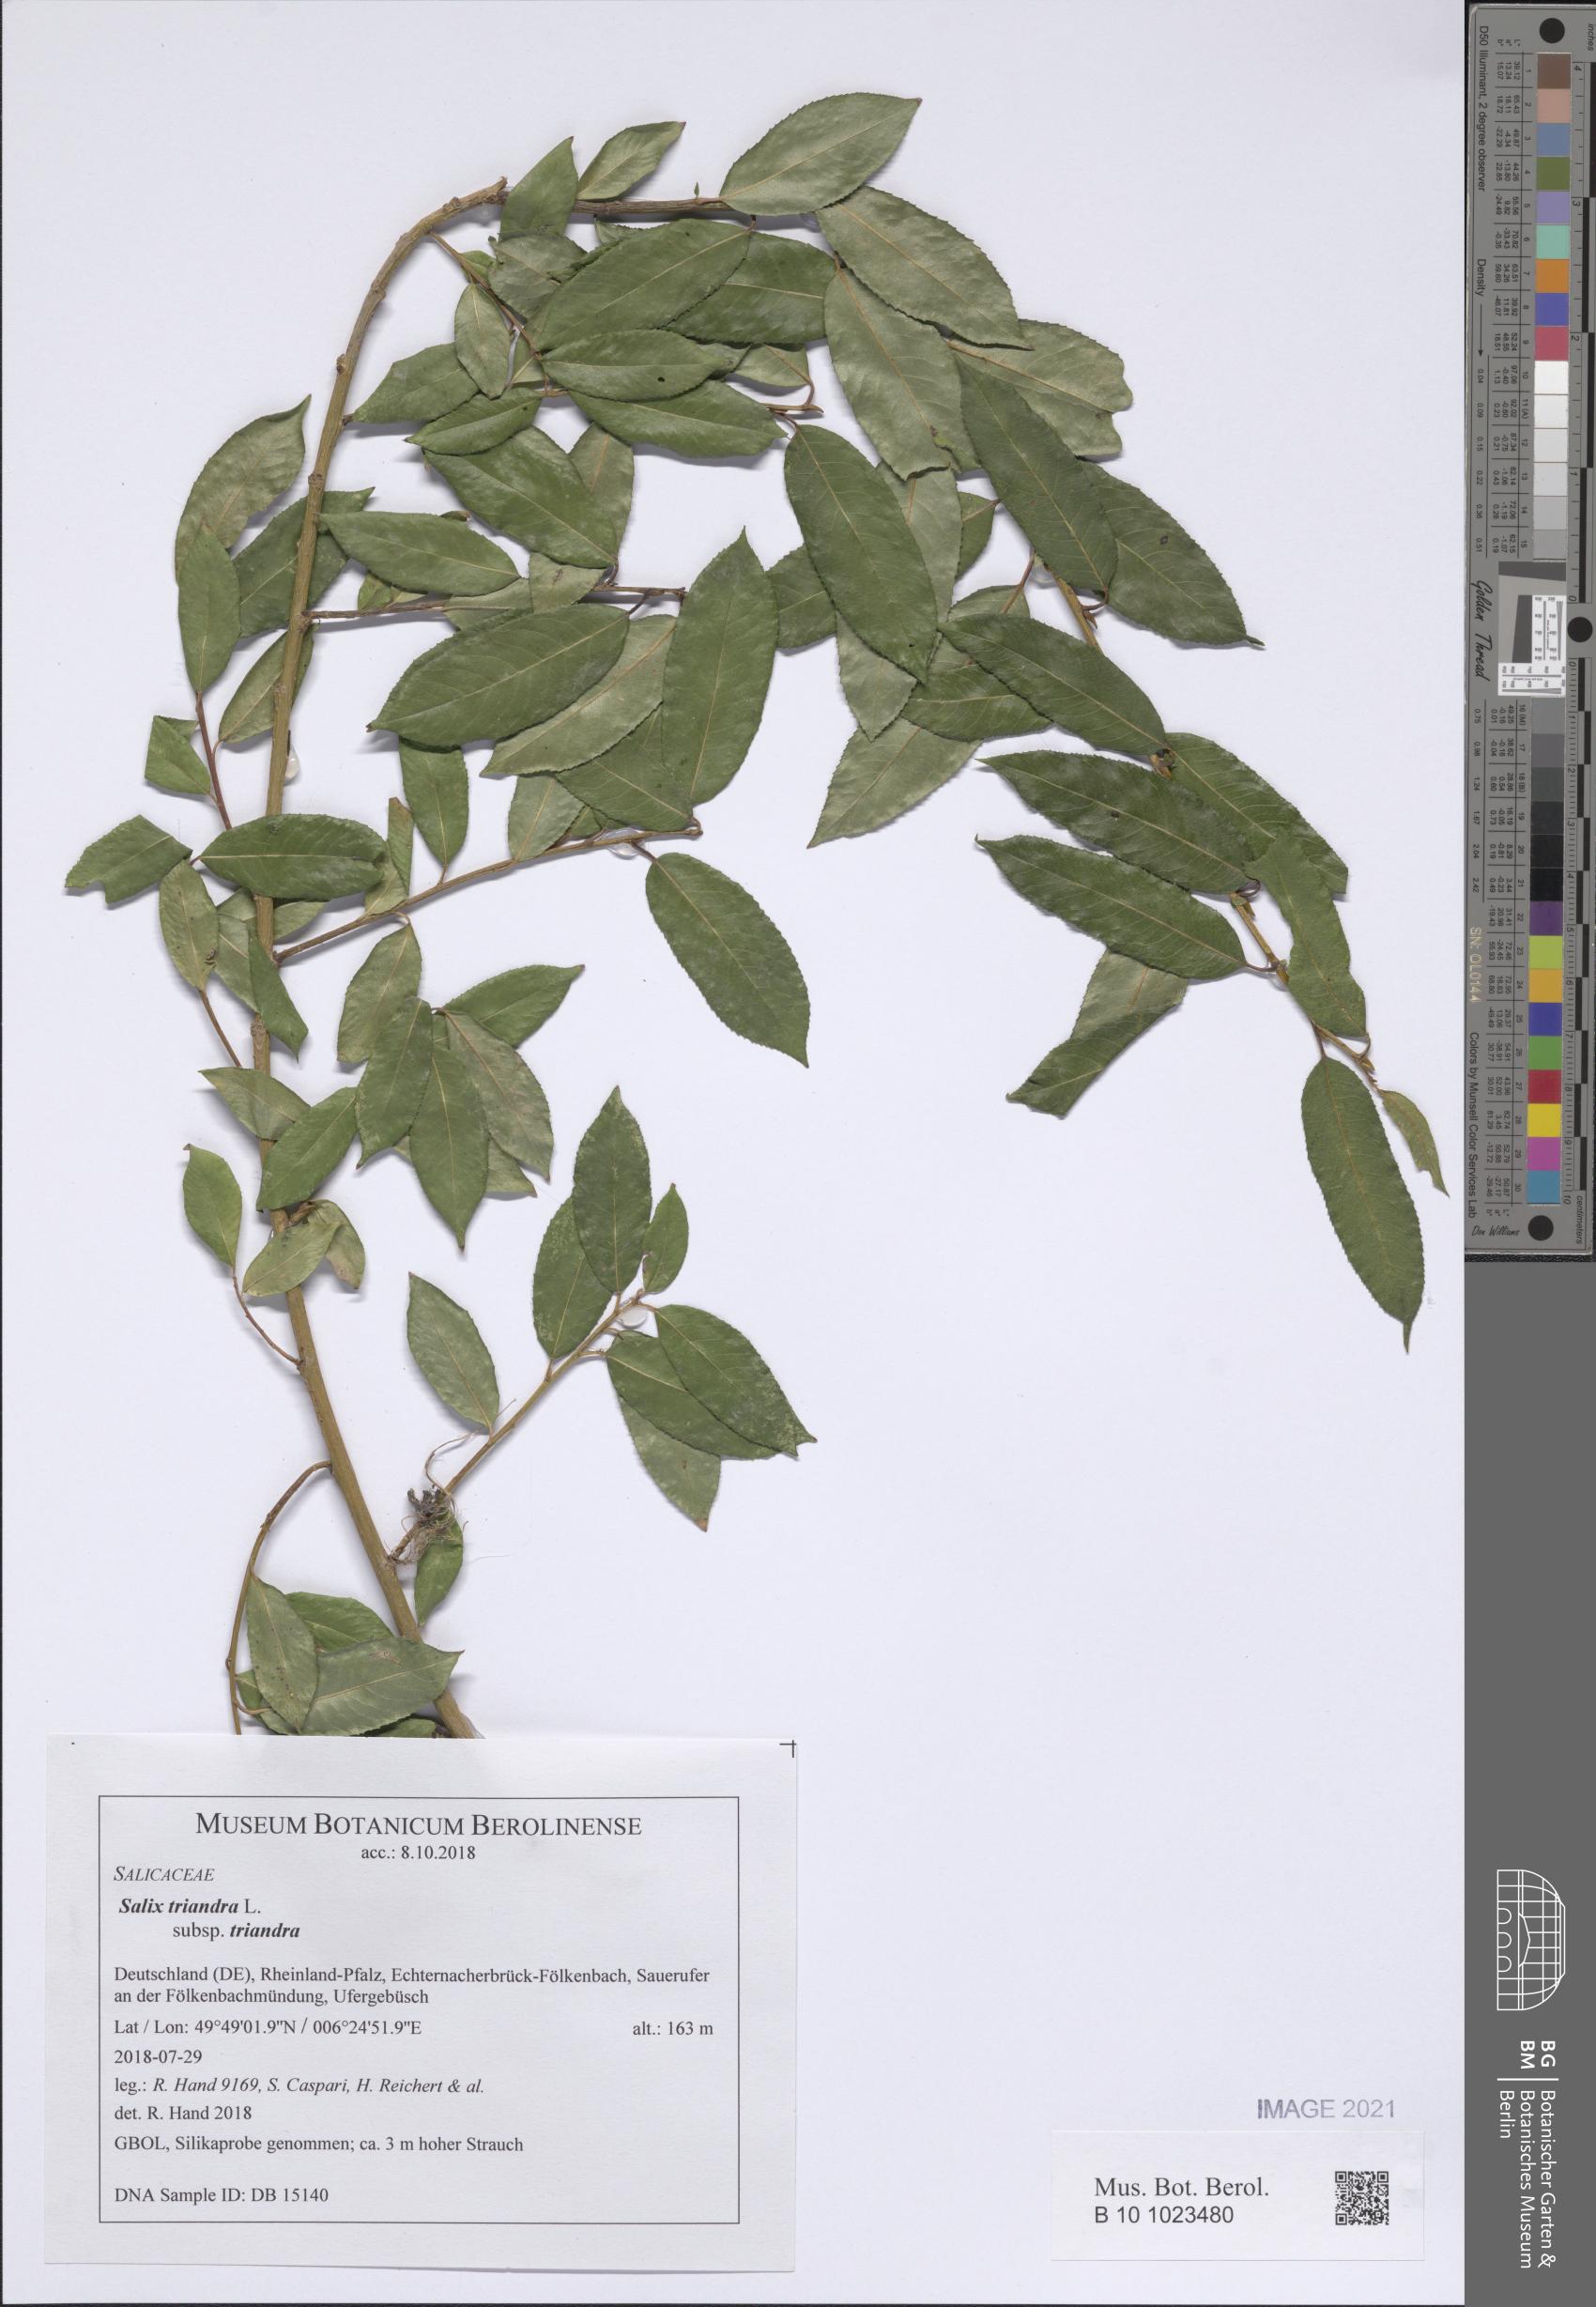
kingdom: Plantae
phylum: Tracheophyta
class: Magnoliopsida
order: Malpighiales
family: Salicaceae
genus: Salix
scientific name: Salix triandra
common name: Almond willow
